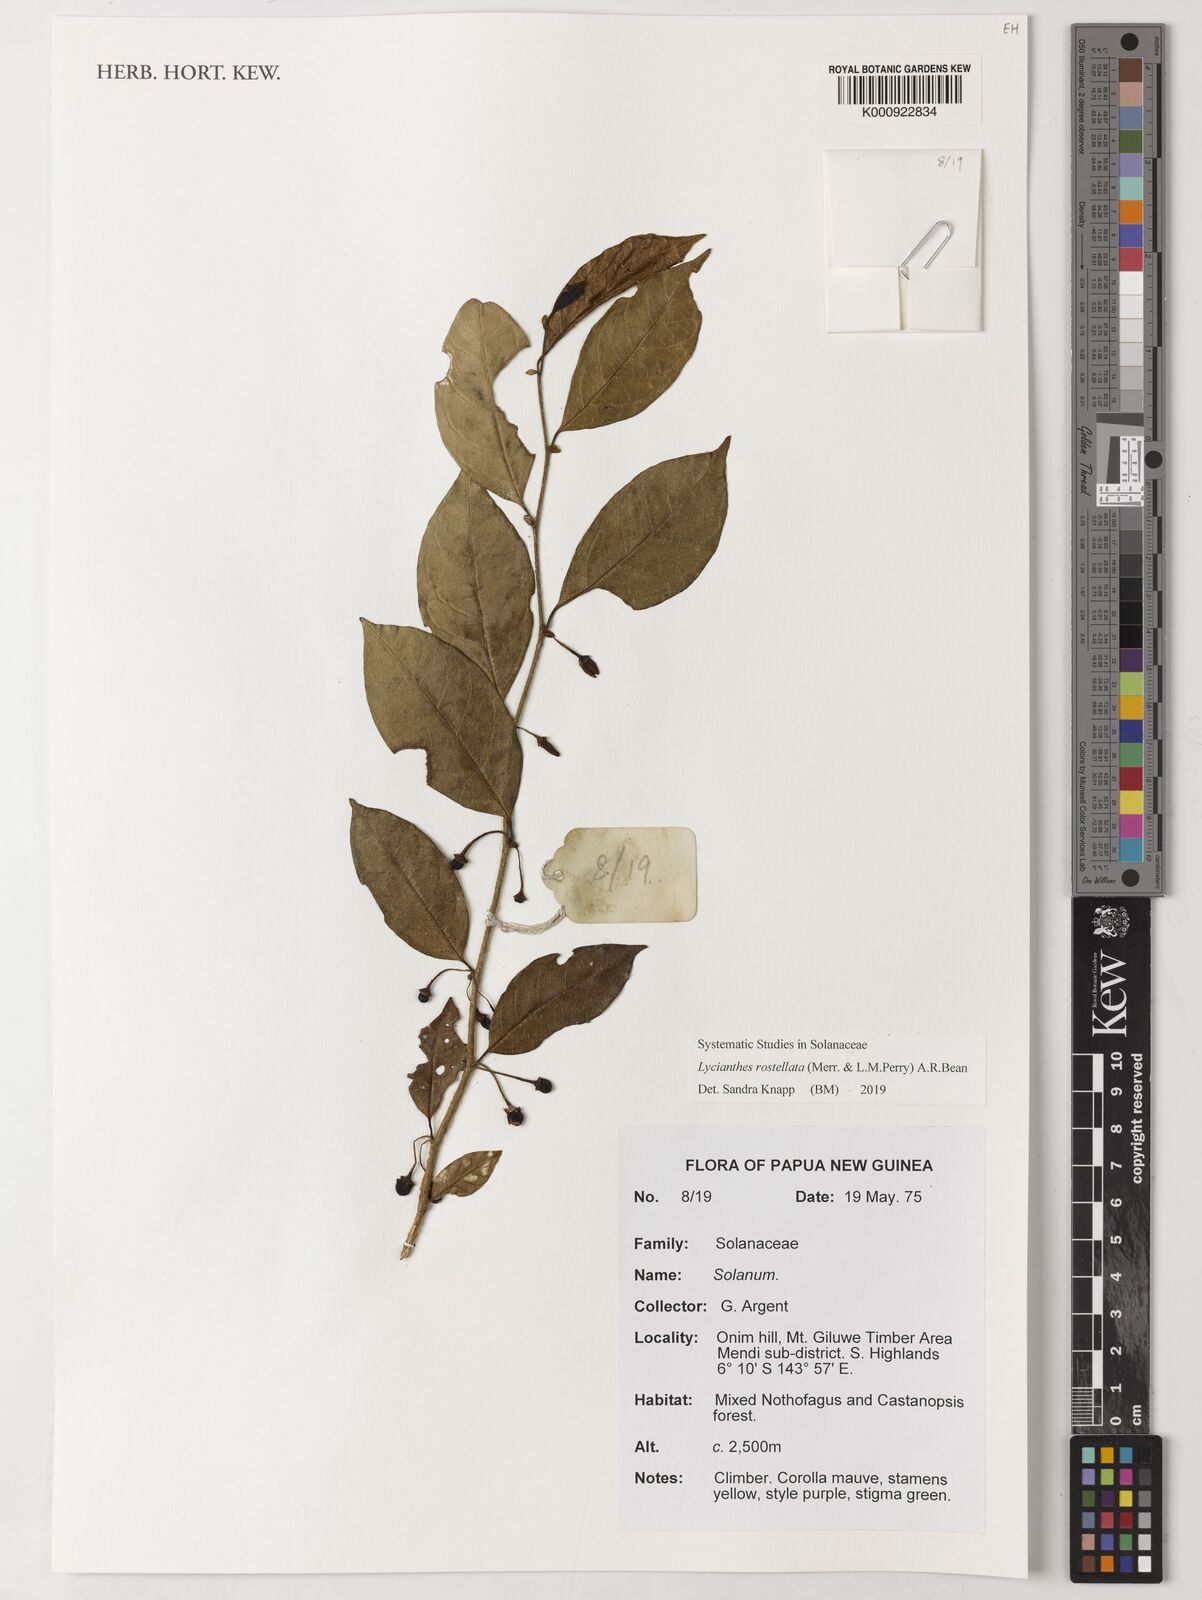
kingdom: Plantae
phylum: Tracheophyta
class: Magnoliopsida
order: Solanales
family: Solanaceae
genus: Lycianthes
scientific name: Lycianthes rostellata
